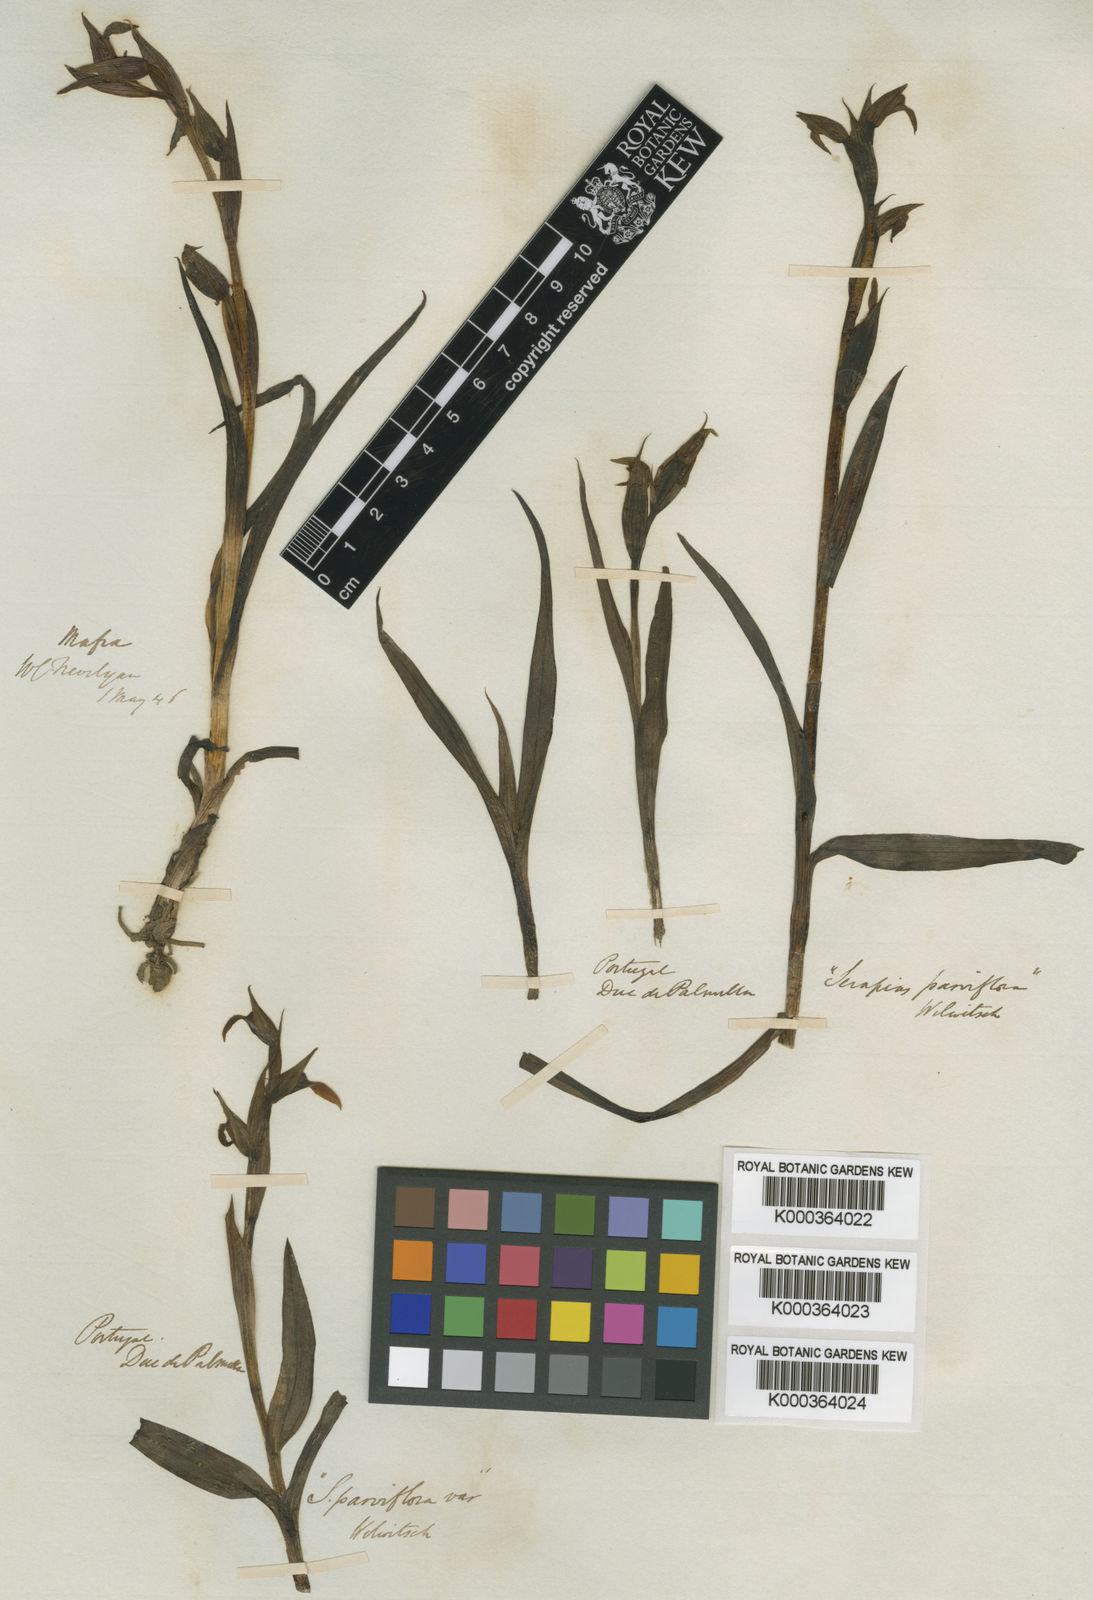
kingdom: Plantae
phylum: Tracheophyta
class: Liliopsida
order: Asparagales
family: Orchidaceae
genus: Serapias
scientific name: Serapias parviflora
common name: Small-flowered tongue-orchid
